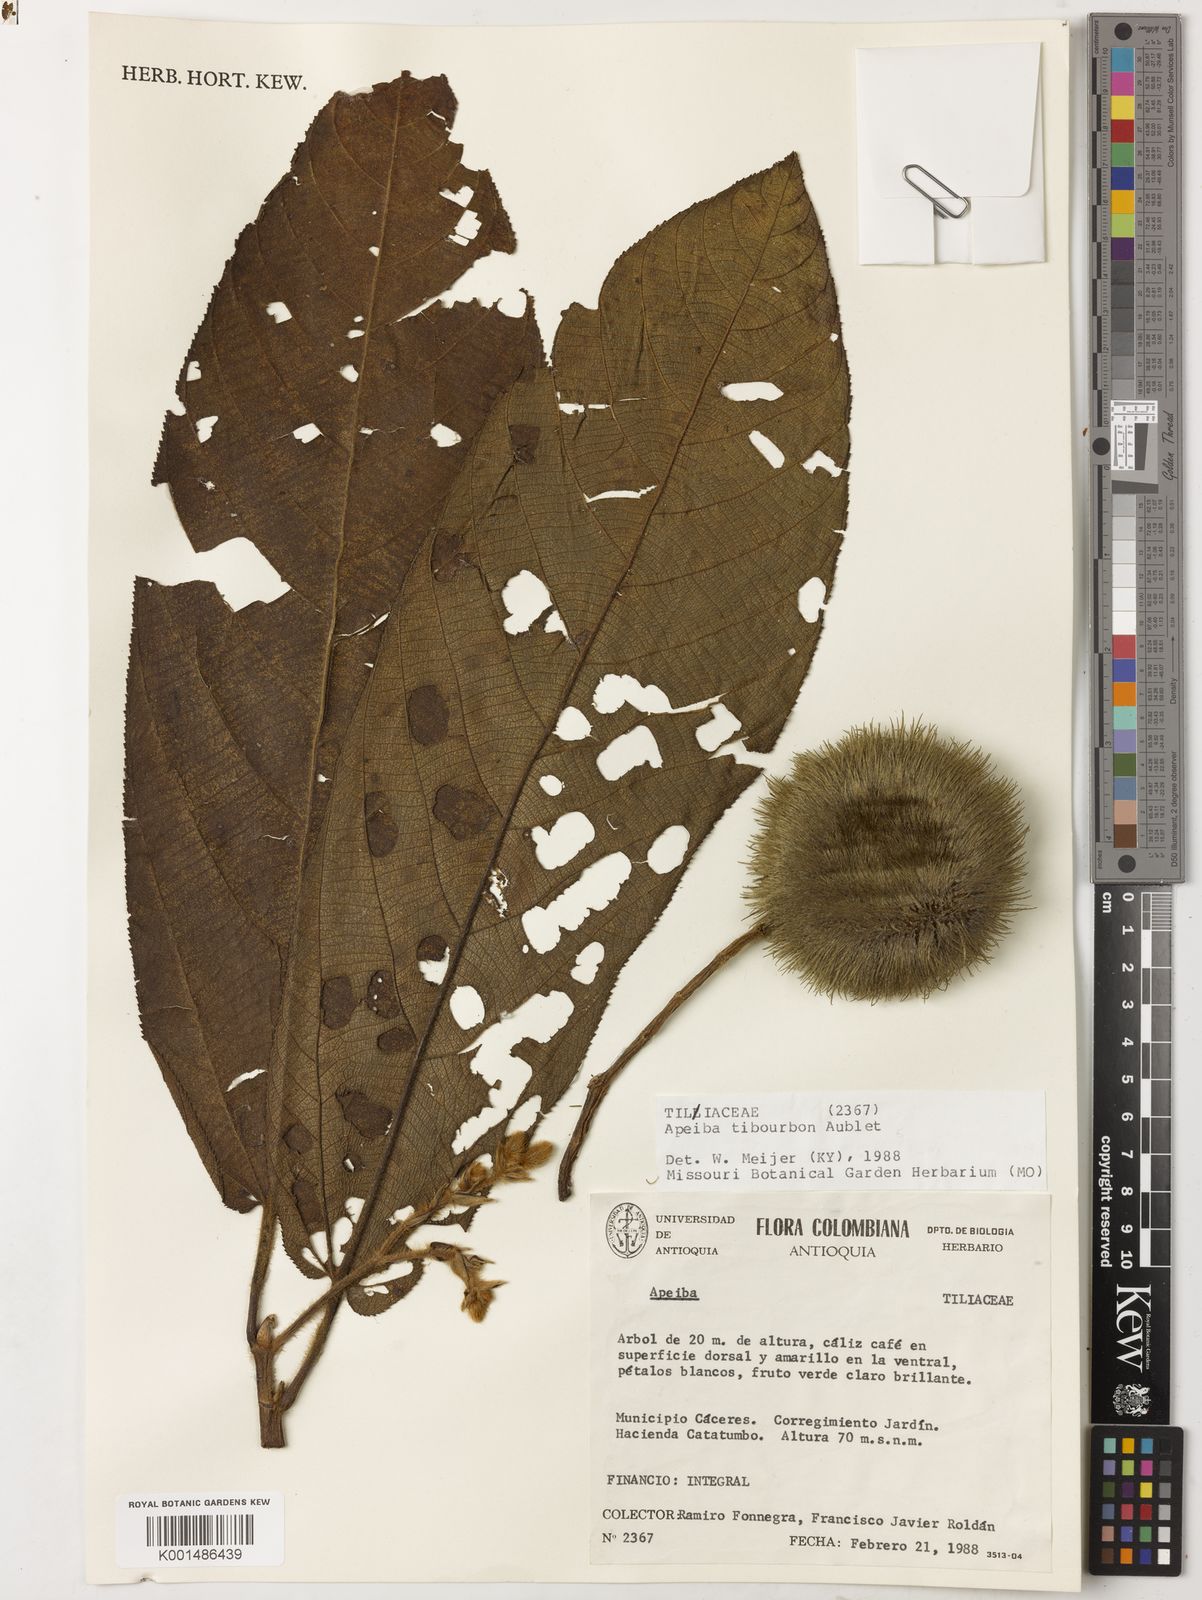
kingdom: Plantae
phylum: Tracheophyta
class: Magnoliopsida
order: Malvales
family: Malvaceae
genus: Apeiba
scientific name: Apeiba tibourbou
